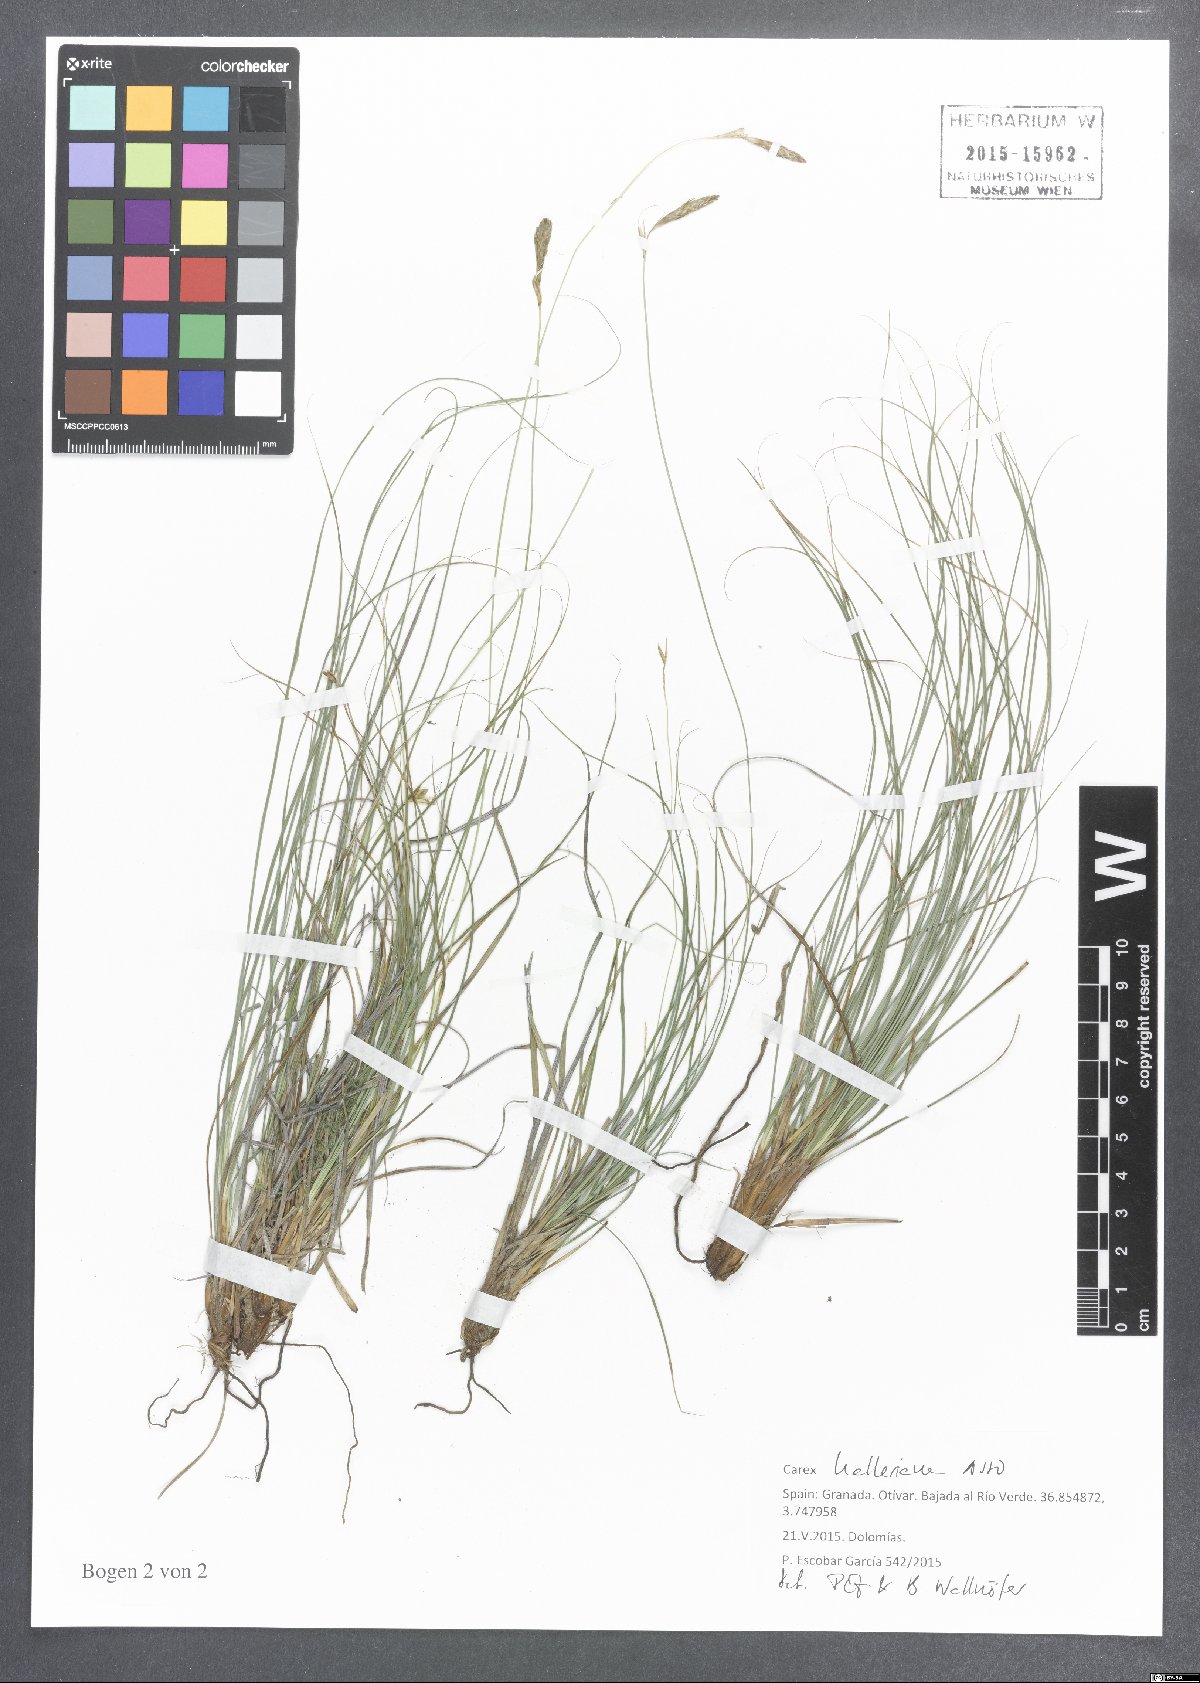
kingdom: Plantae
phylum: Tracheophyta
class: Liliopsida
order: Poales
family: Cyperaceae
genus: Carex
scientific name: Carex halleriana
